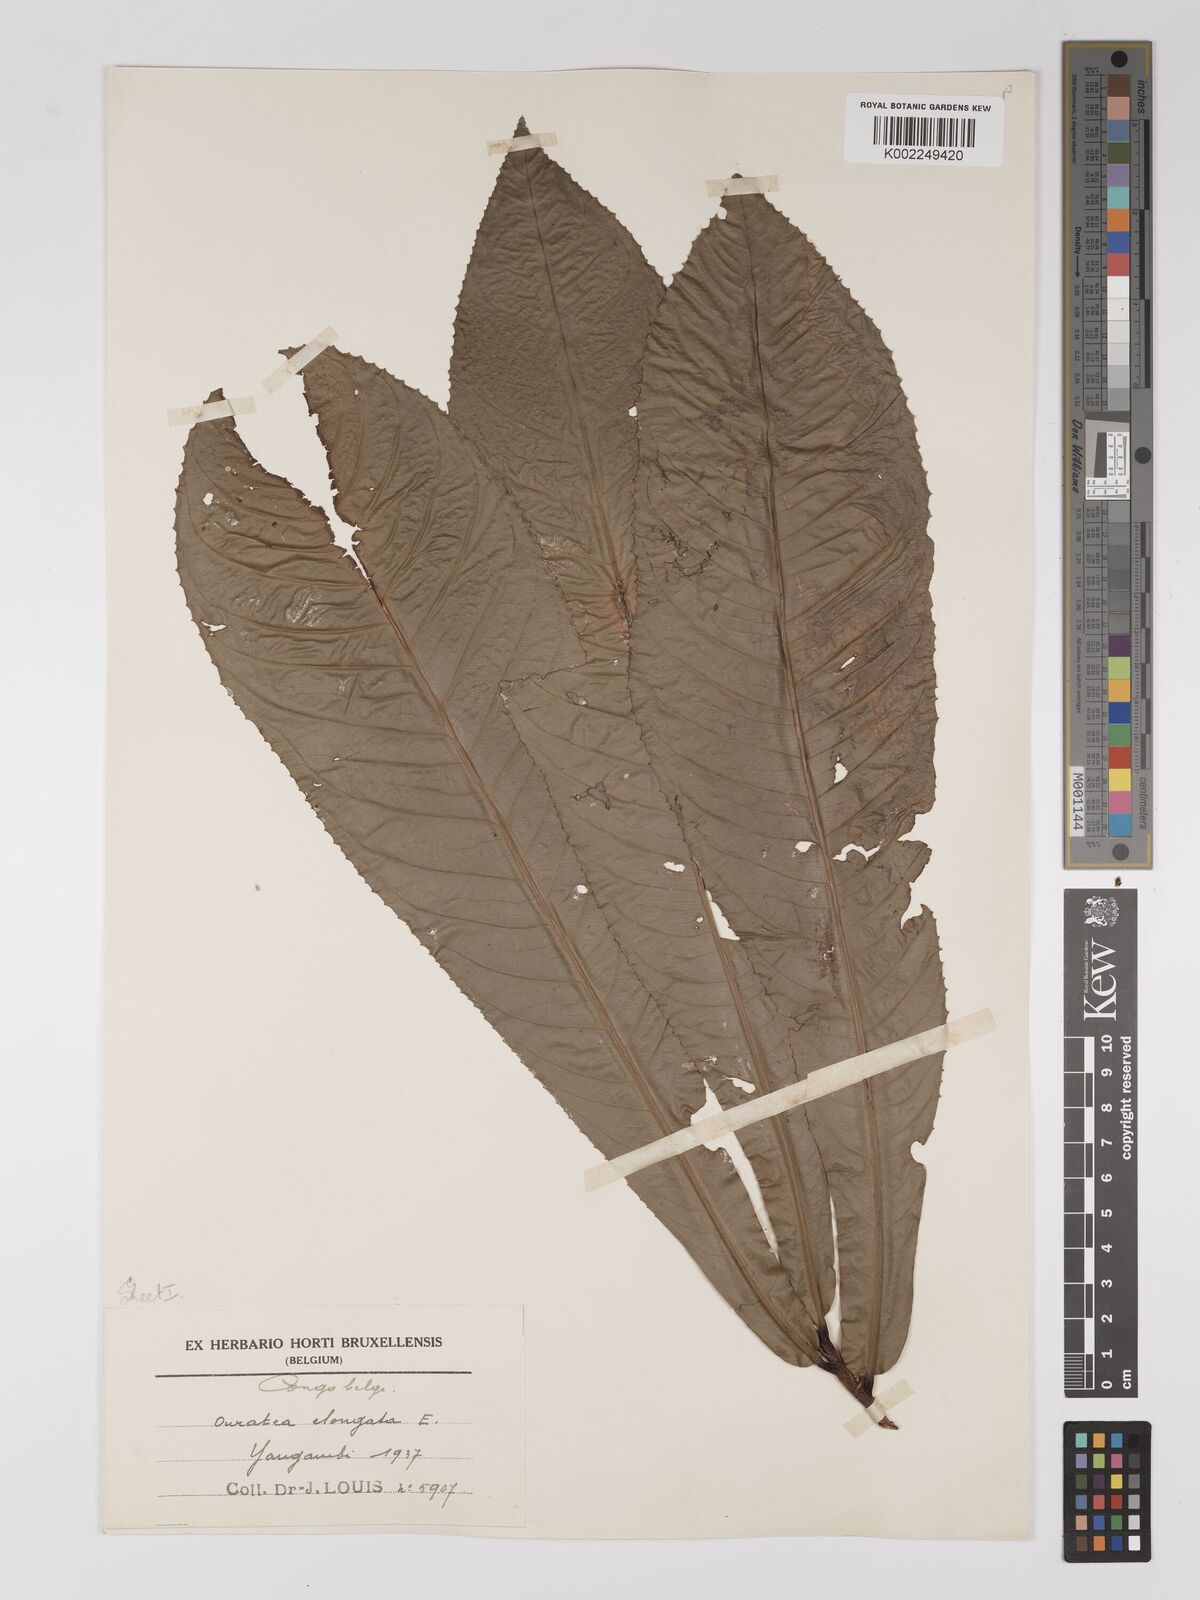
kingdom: Plantae
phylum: Tracheophyta
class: Magnoliopsida
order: Malpighiales
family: Ochnaceae
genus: Gomphia
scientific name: Gomphia elongata
